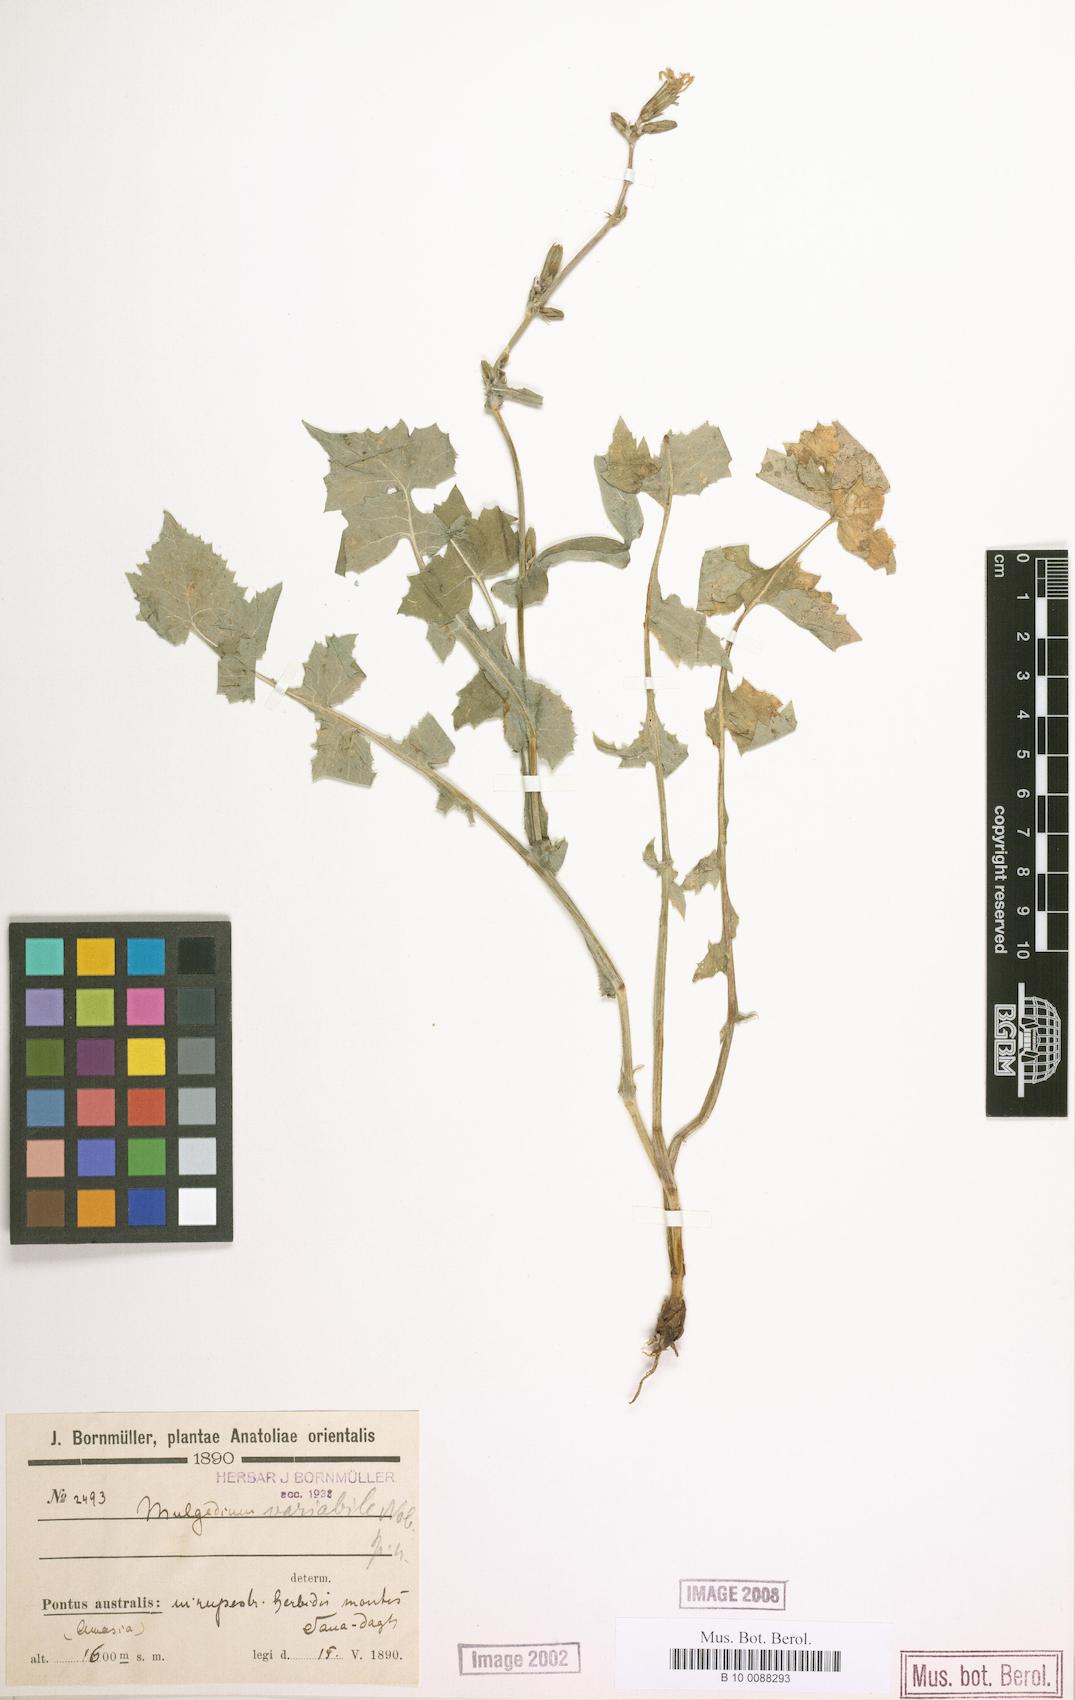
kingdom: Plantae
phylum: Tracheophyta
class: Magnoliopsida
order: Asterales
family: Asteraceae
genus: Lactuca
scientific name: Lactuca variabilis
